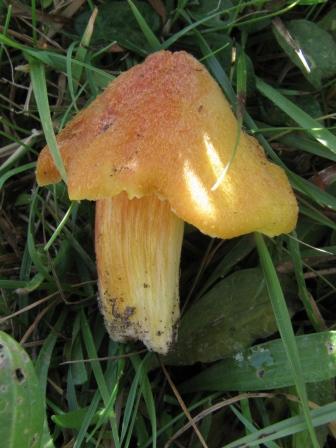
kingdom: Fungi
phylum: Basidiomycota
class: Agaricomycetes
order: Agaricales
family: Hygrophoraceae
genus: Hygrocybe
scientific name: Hygrocybe intermedia
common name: trævlet vokshat
